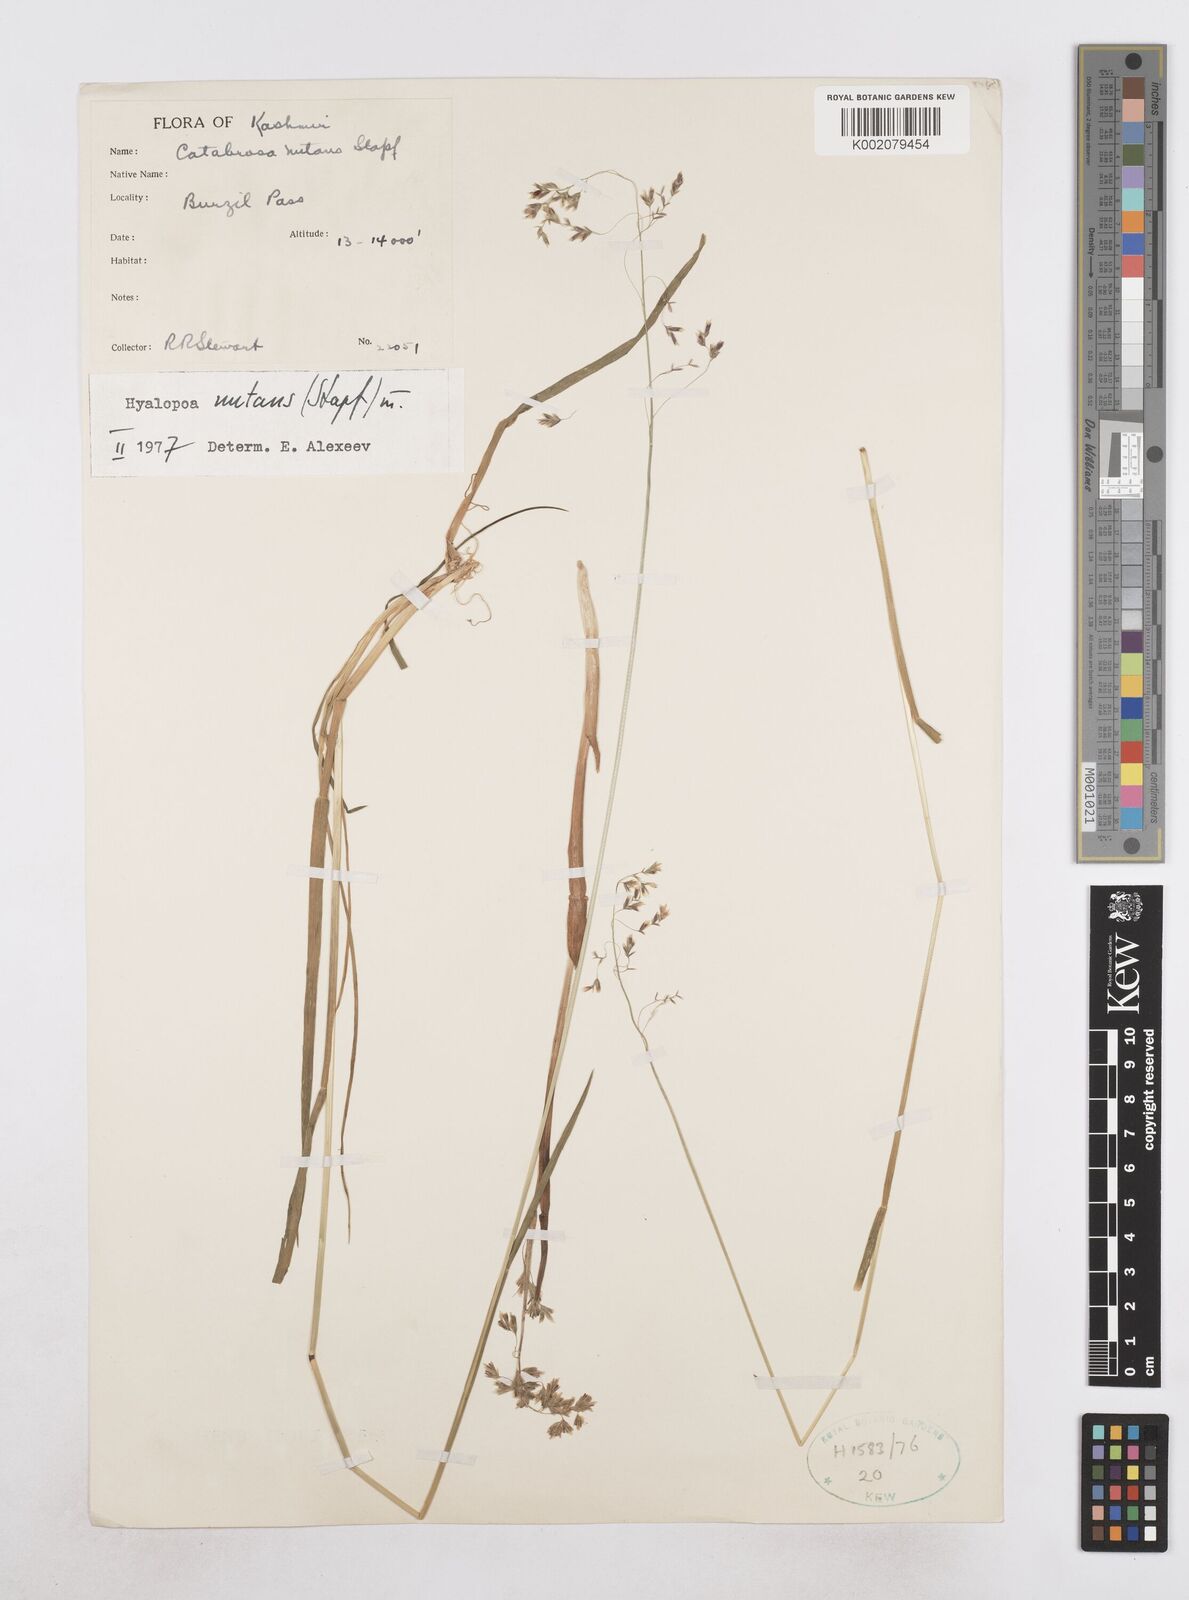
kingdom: Plantae
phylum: Tracheophyta
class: Liliopsida
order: Poales
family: Poaceae
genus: Hyalopoa
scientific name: Hyalopoa nutans
